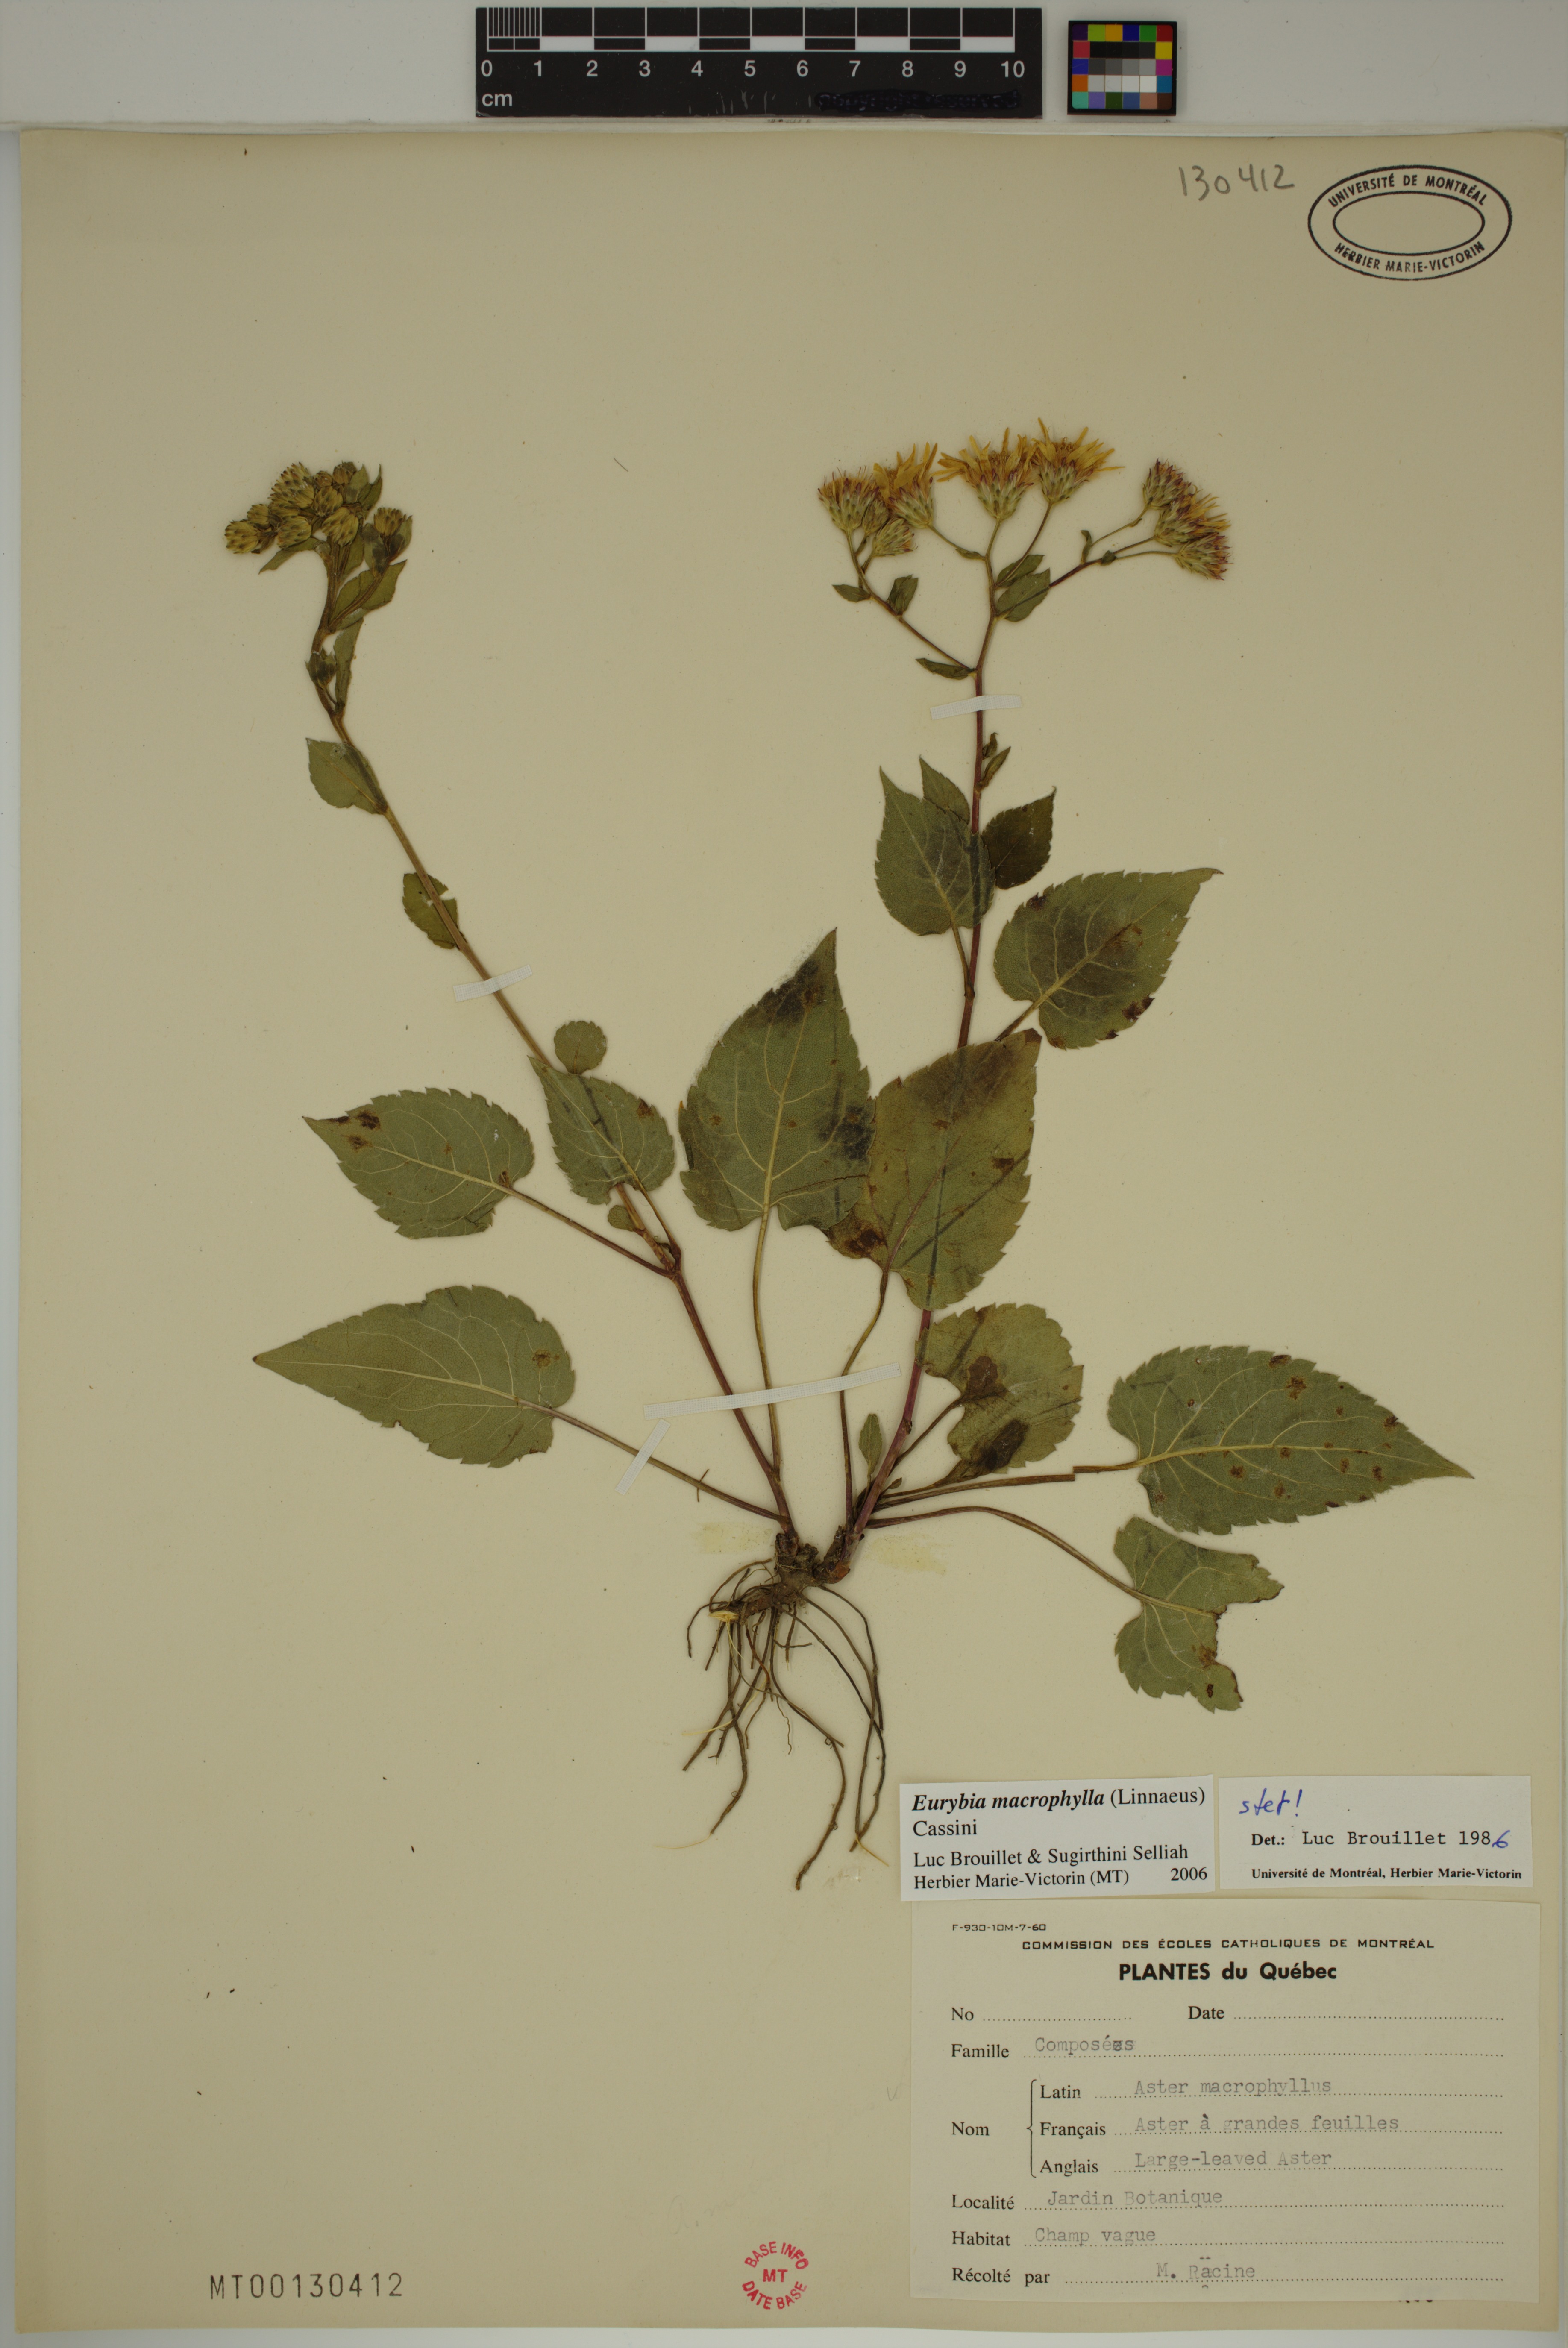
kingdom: Plantae
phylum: Tracheophyta
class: Magnoliopsida
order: Asterales
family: Asteraceae
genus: Eurybia
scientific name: Eurybia macrophylla
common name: Big-leaved aster
